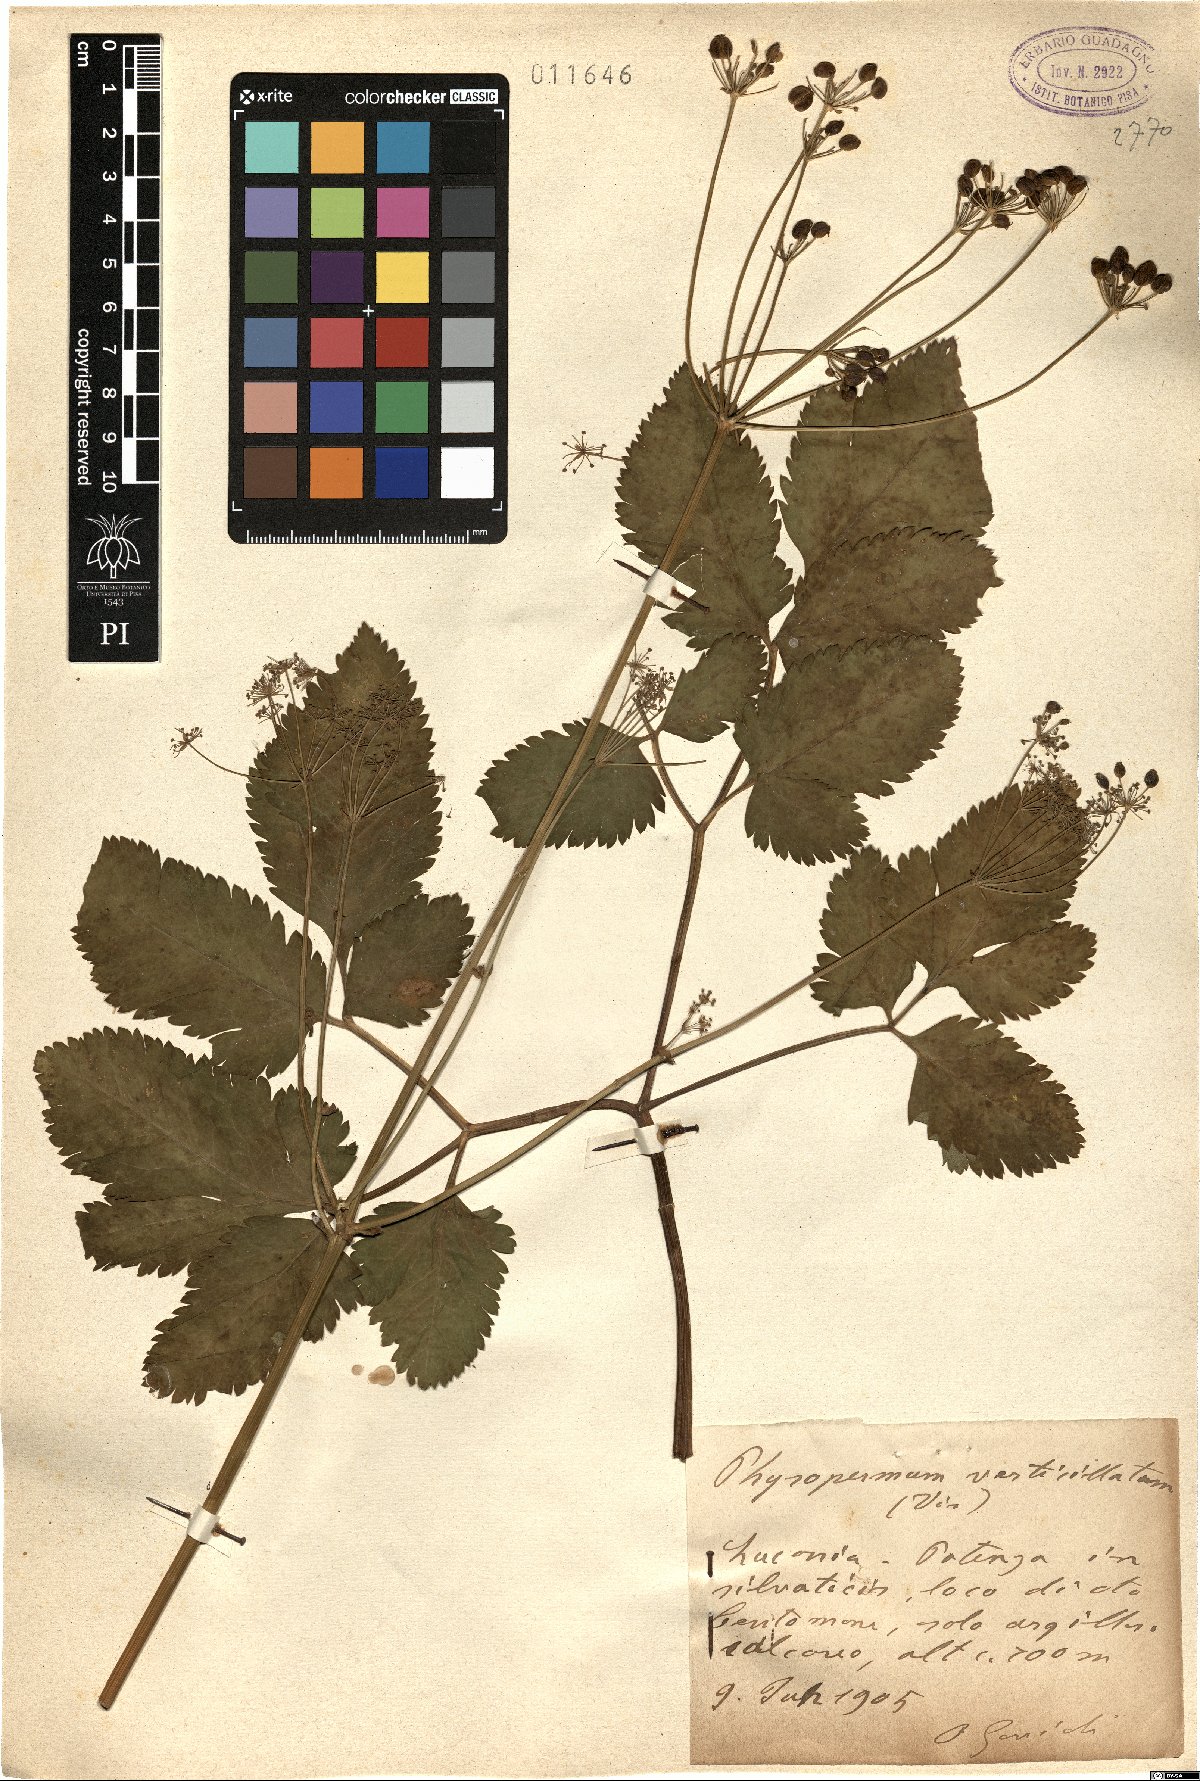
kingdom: Plantae
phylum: Tracheophyta
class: Magnoliopsida
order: Apiales
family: Apiaceae
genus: Physospermum
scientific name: Physospermum verticillatum
